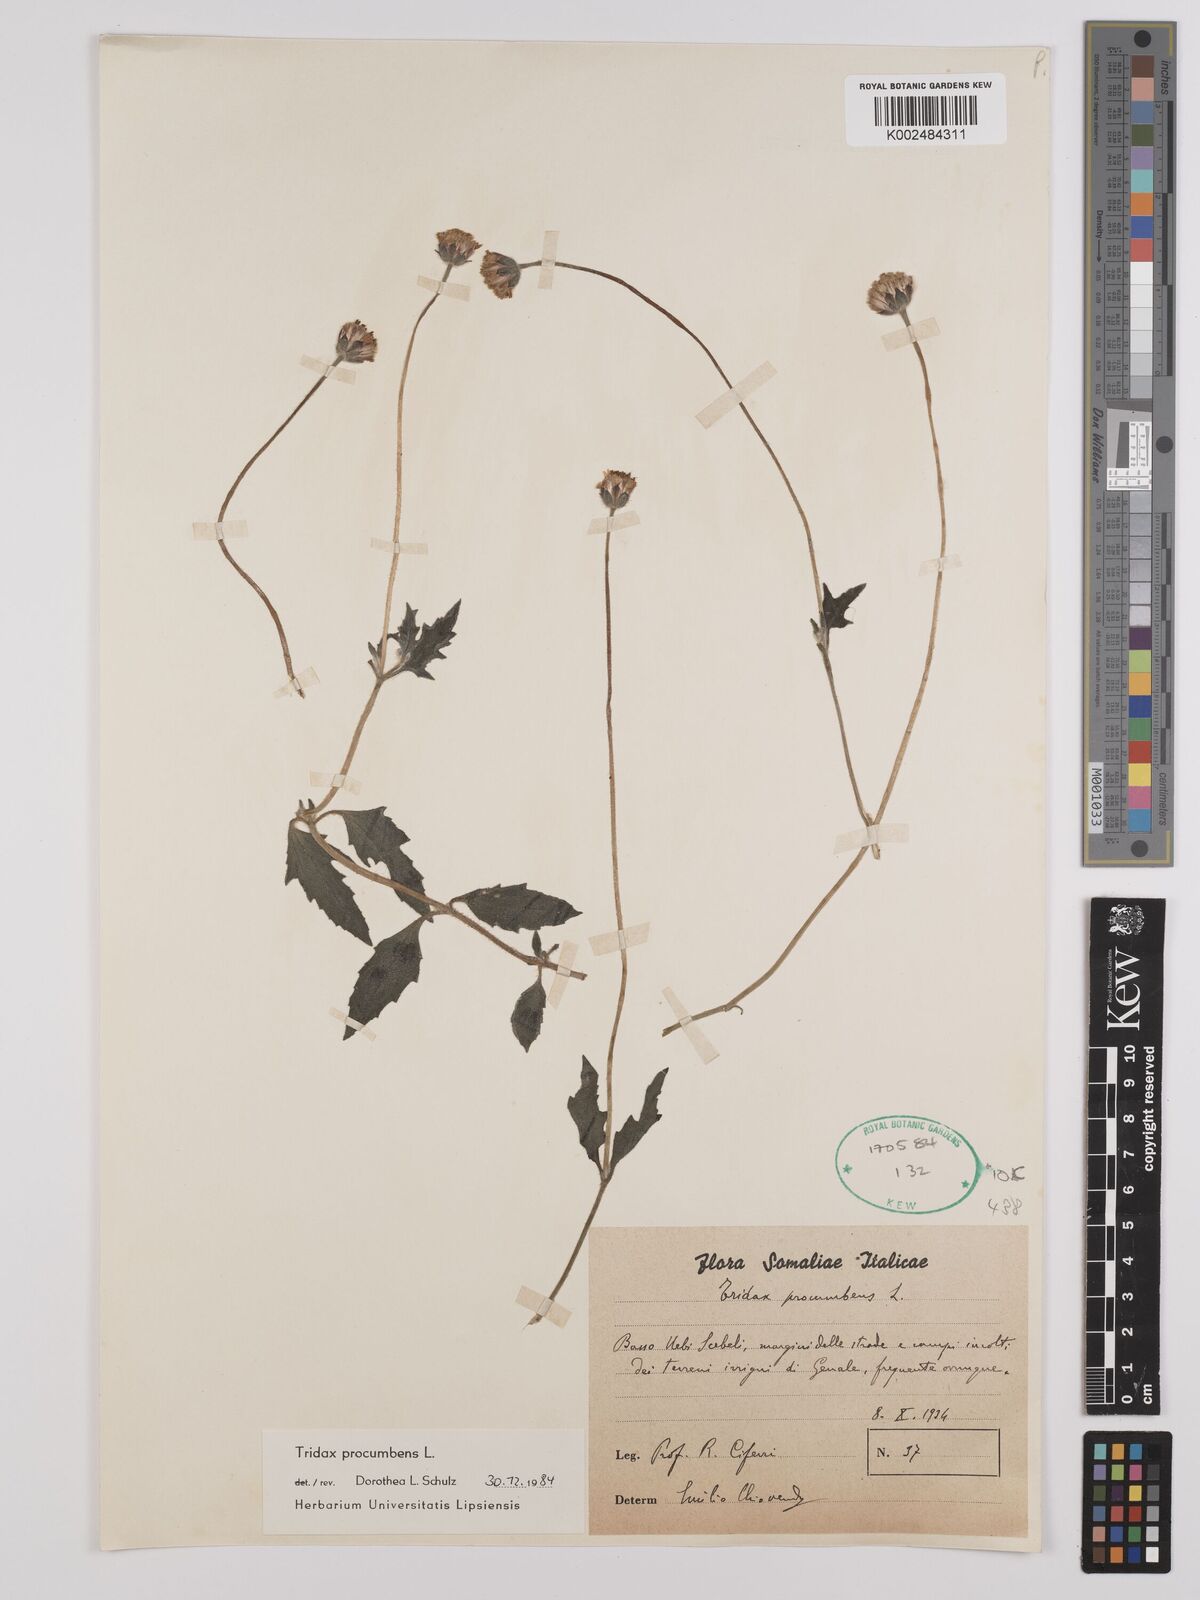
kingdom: Plantae
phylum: Tracheophyta
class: Magnoliopsida
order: Asterales
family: Asteraceae
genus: Tridax
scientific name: Tridax procumbens
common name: Coatbuttons
